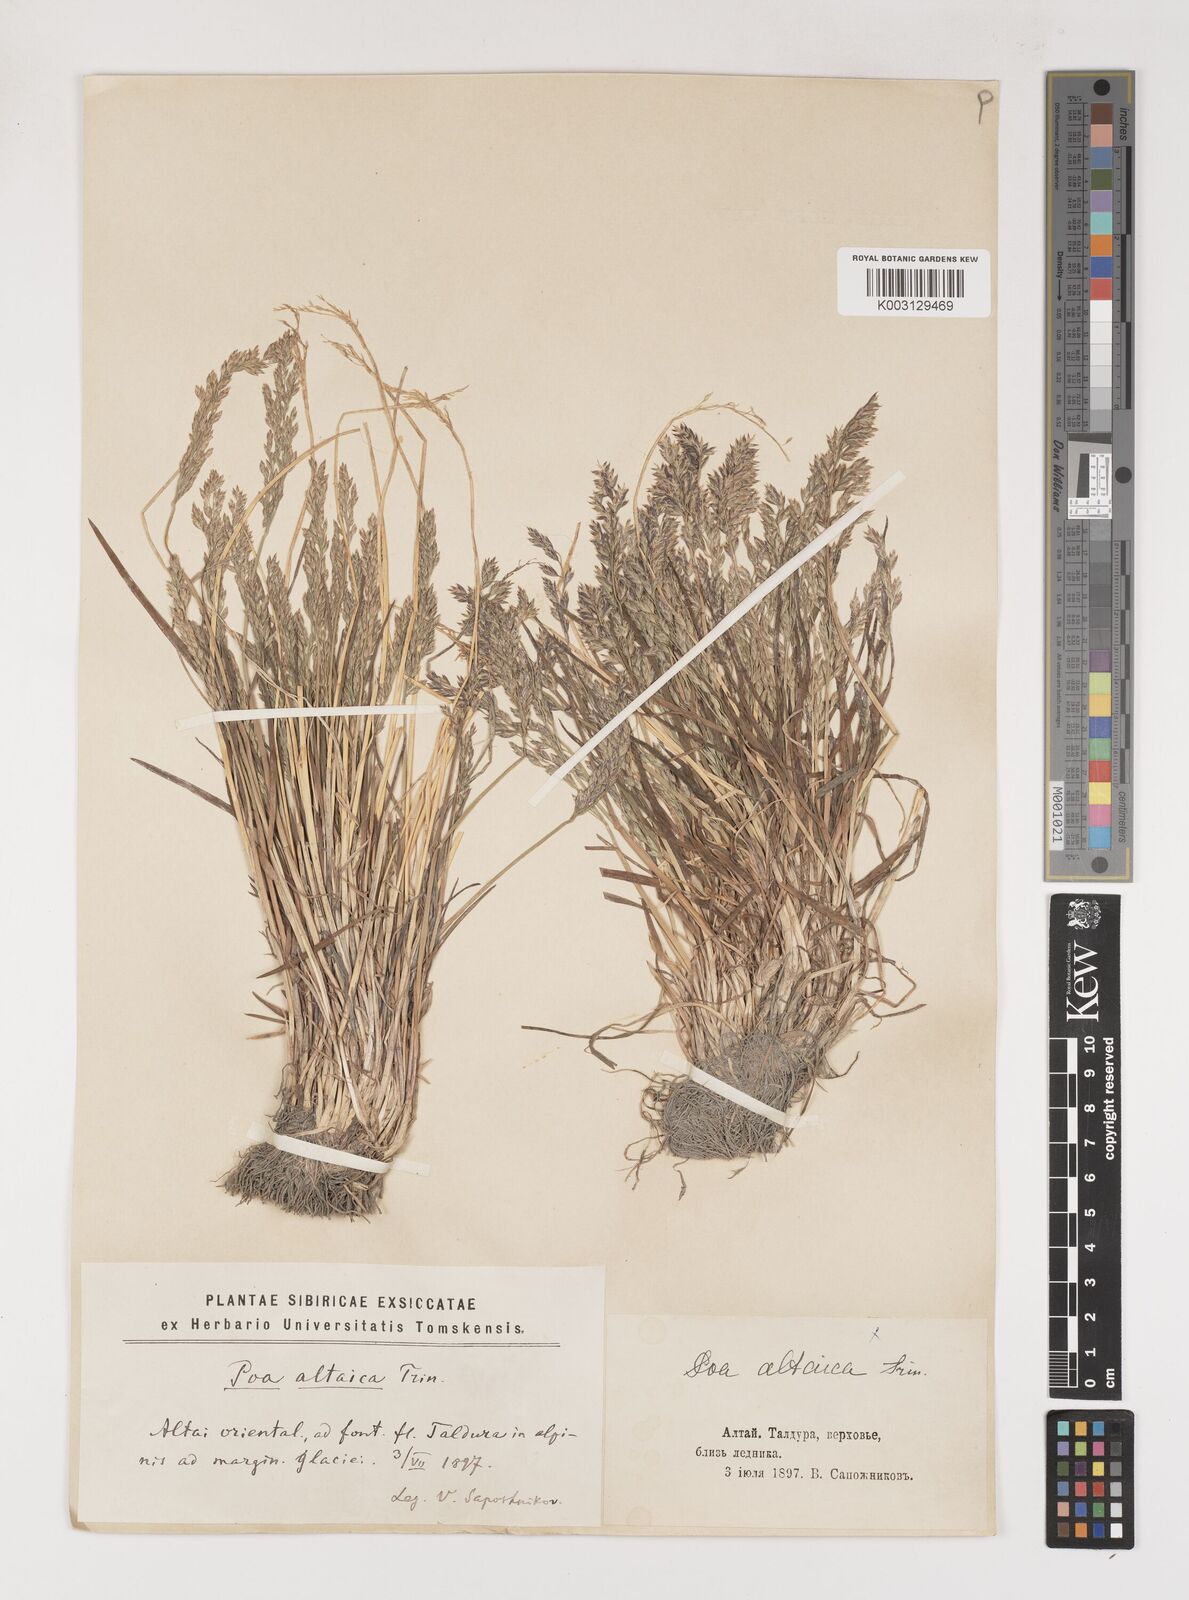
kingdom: Plantae
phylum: Tracheophyta
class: Liliopsida
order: Poales
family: Poaceae
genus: Poa
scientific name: Poa glauca
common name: Glaucous bluegrass
